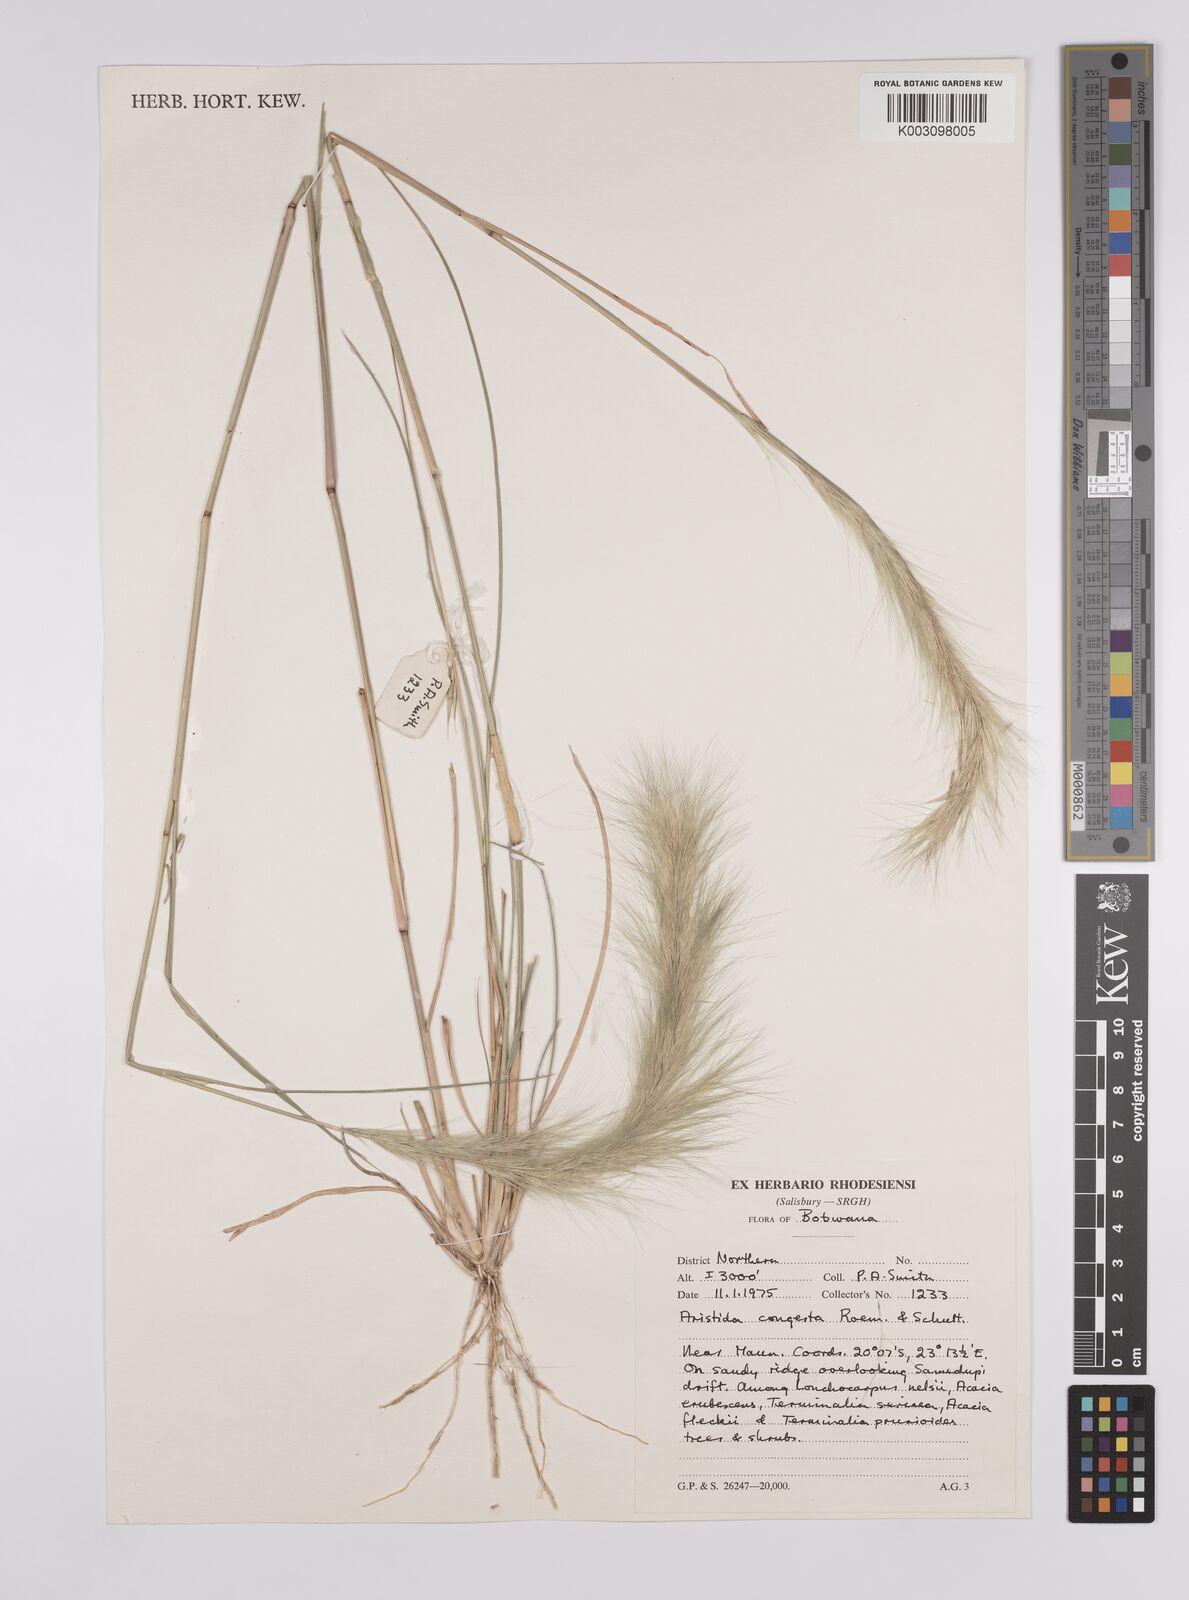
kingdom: Plantae
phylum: Tracheophyta
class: Liliopsida
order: Poales
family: Poaceae
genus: Aristida
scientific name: Aristida congesta
